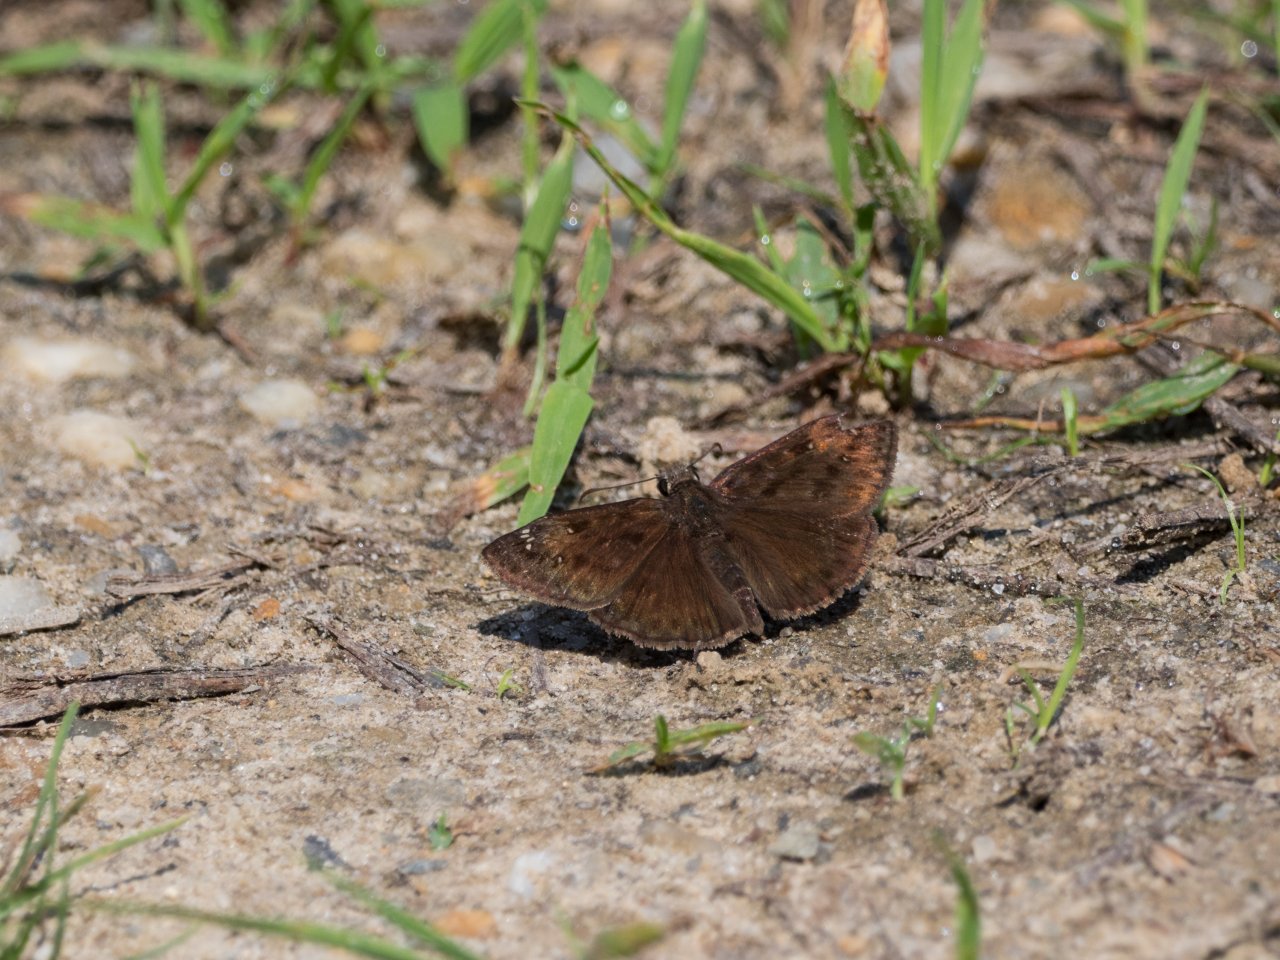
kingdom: Animalia
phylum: Arthropoda
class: Insecta
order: Lepidoptera
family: Hesperiidae
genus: Gesta
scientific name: Gesta
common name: Horace's Duskywing
